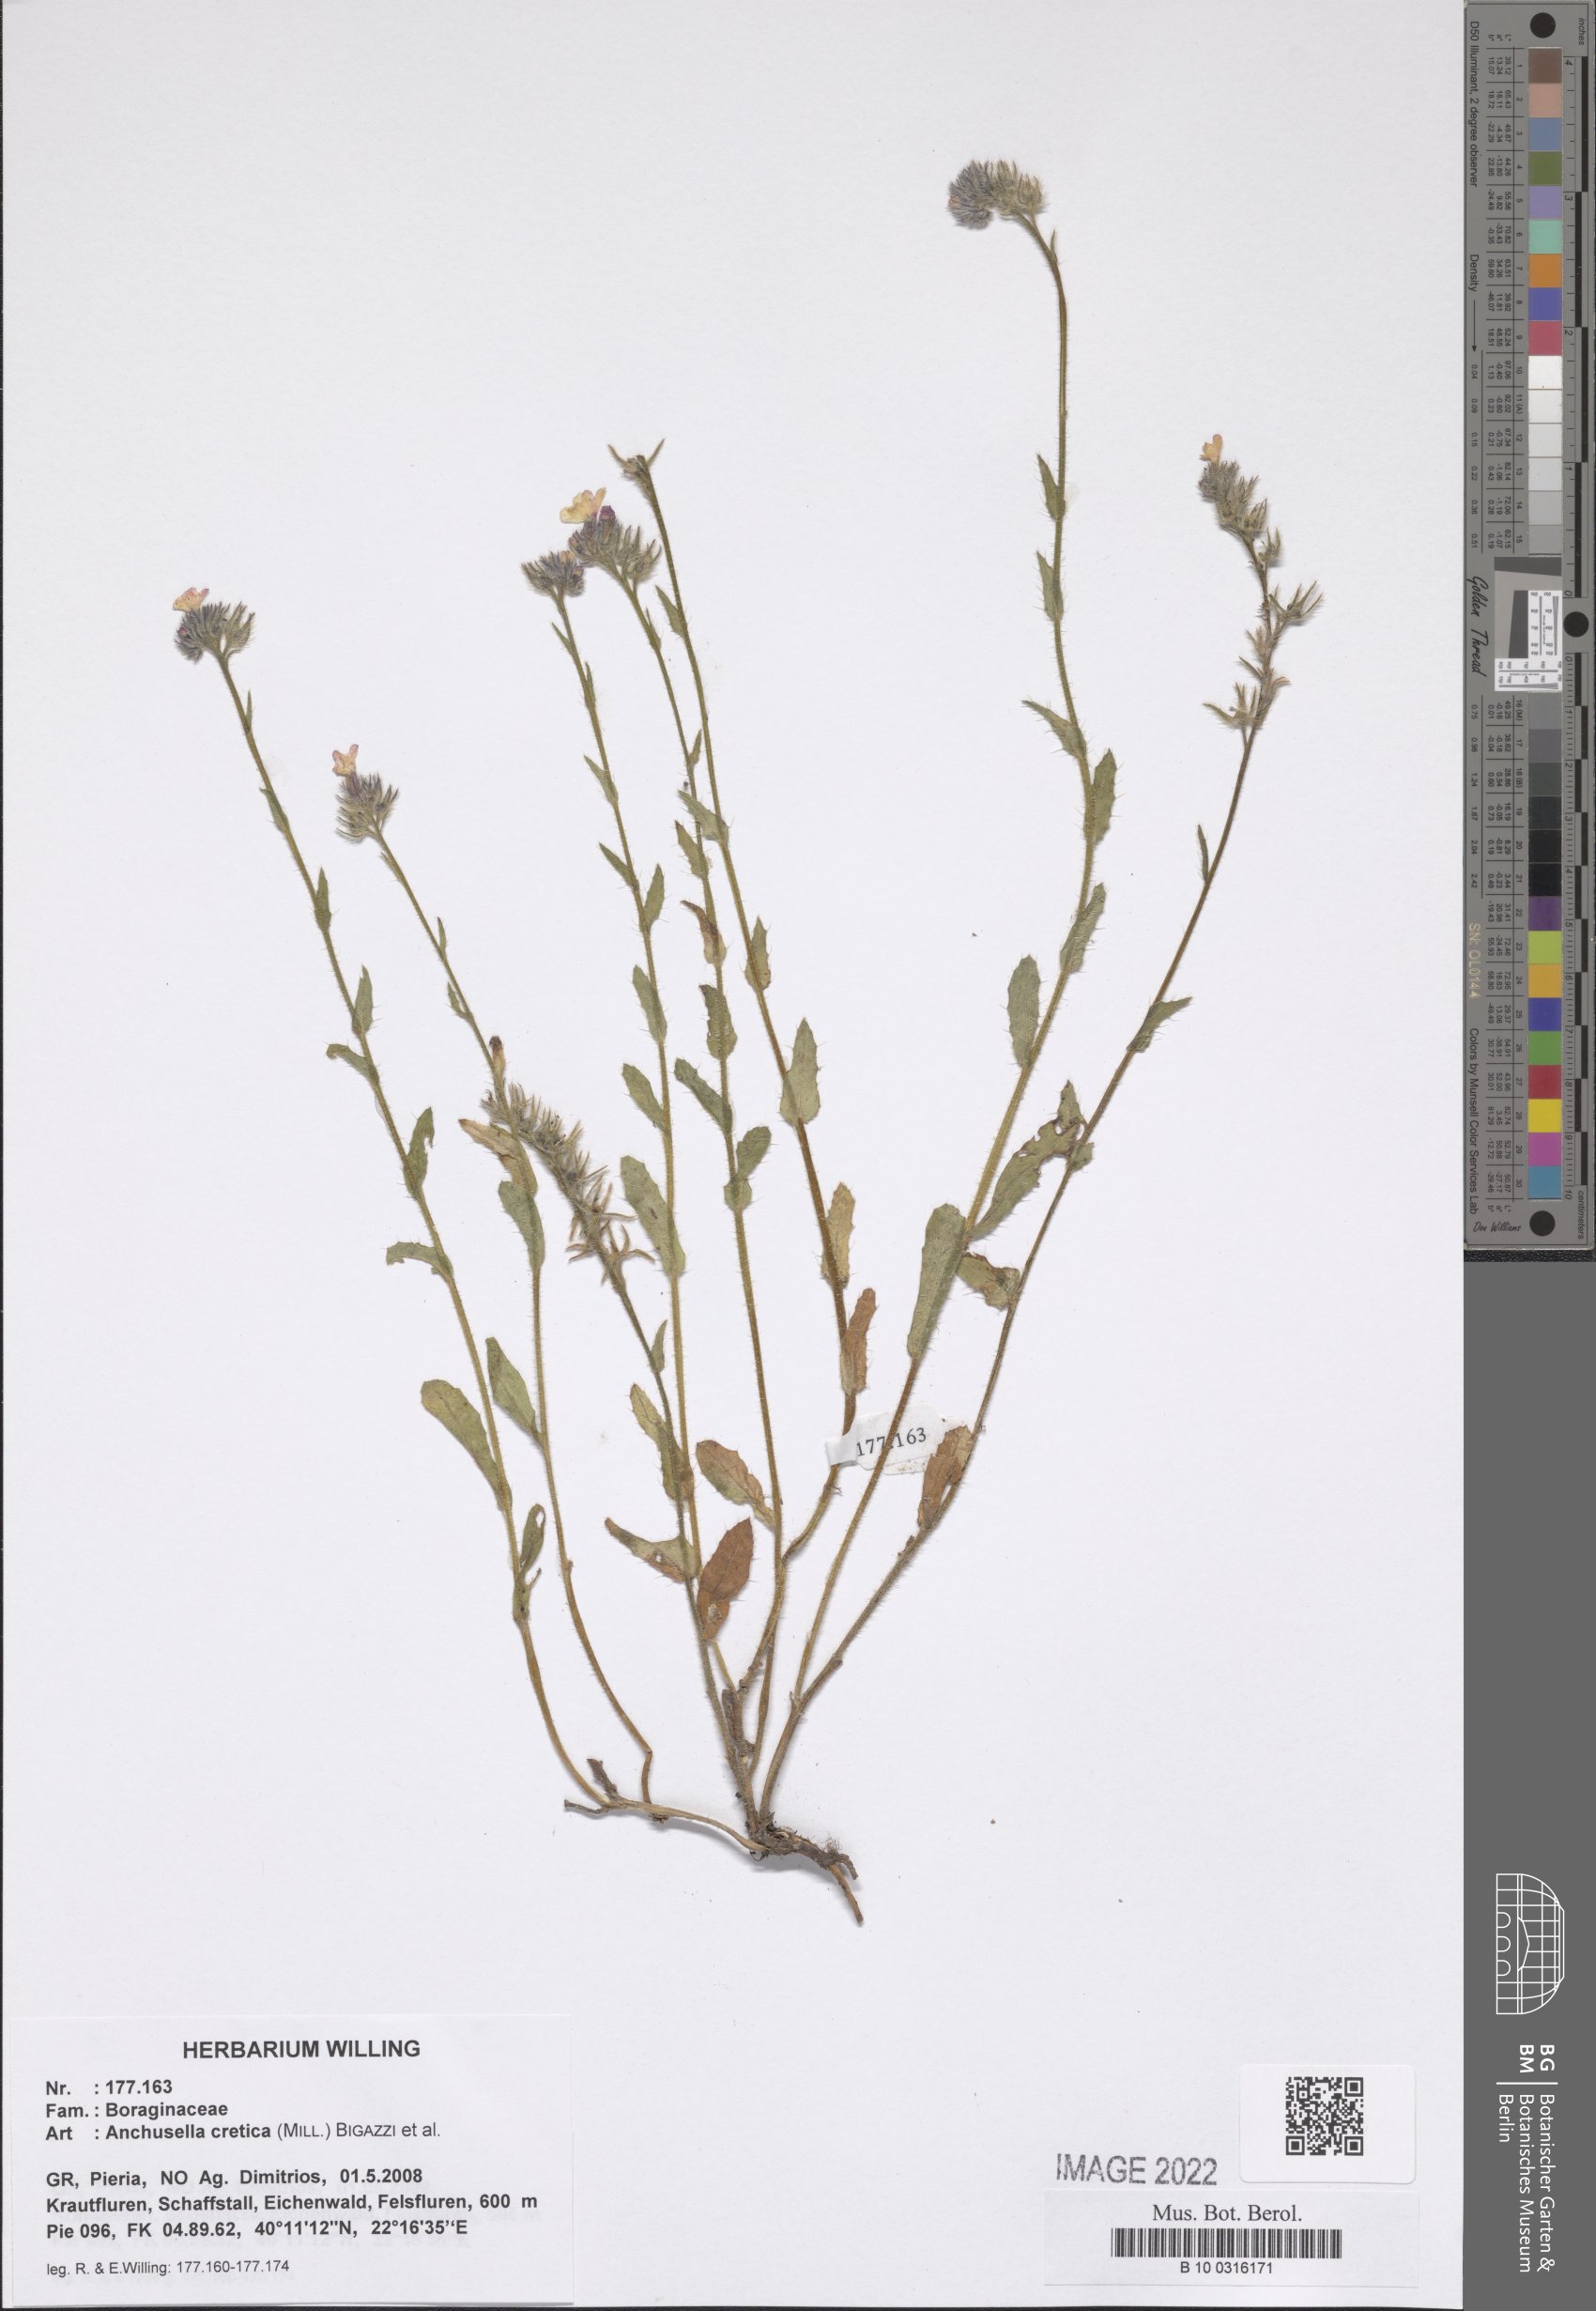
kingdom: Plantae
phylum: Tracheophyta
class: Magnoliopsida
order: Boraginales
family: Boraginaceae
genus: Anchusella
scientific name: Anchusella cretica
